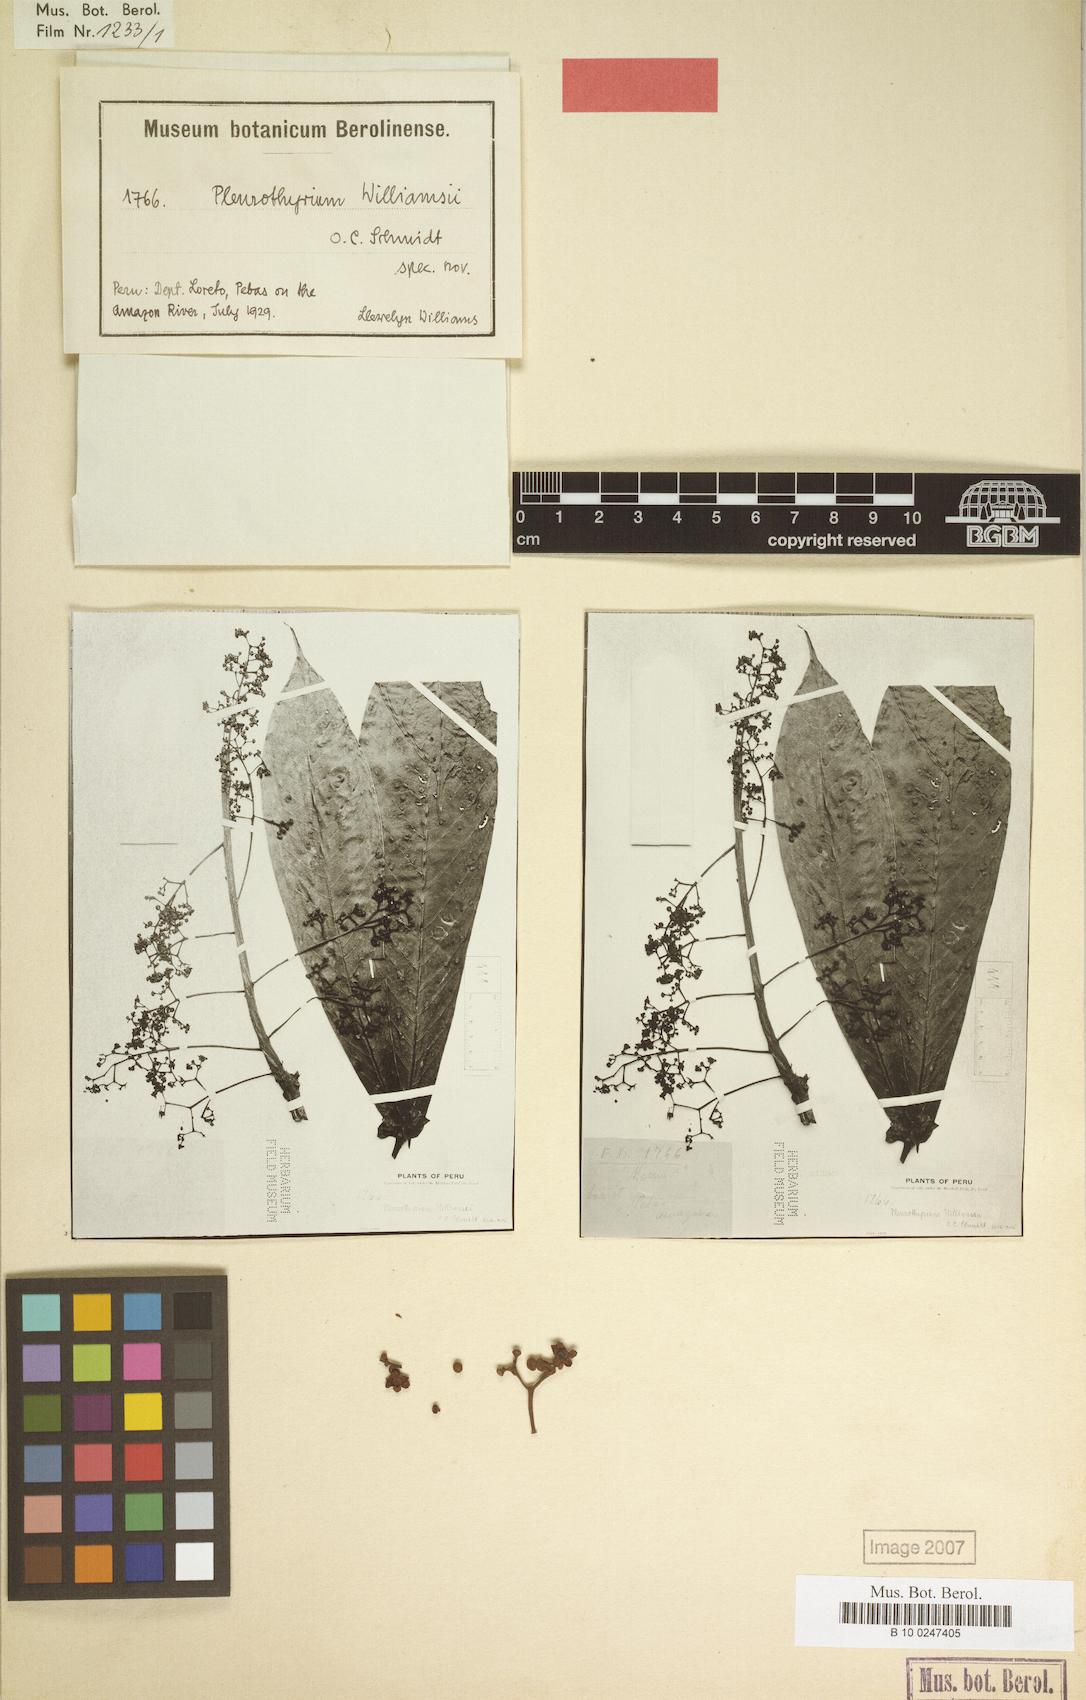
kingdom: Plantae
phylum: Tracheophyta
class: Magnoliopsida
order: Laurales
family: Lauraceae
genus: Pleurothyrium
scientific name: Pleurothyrium williamsii
